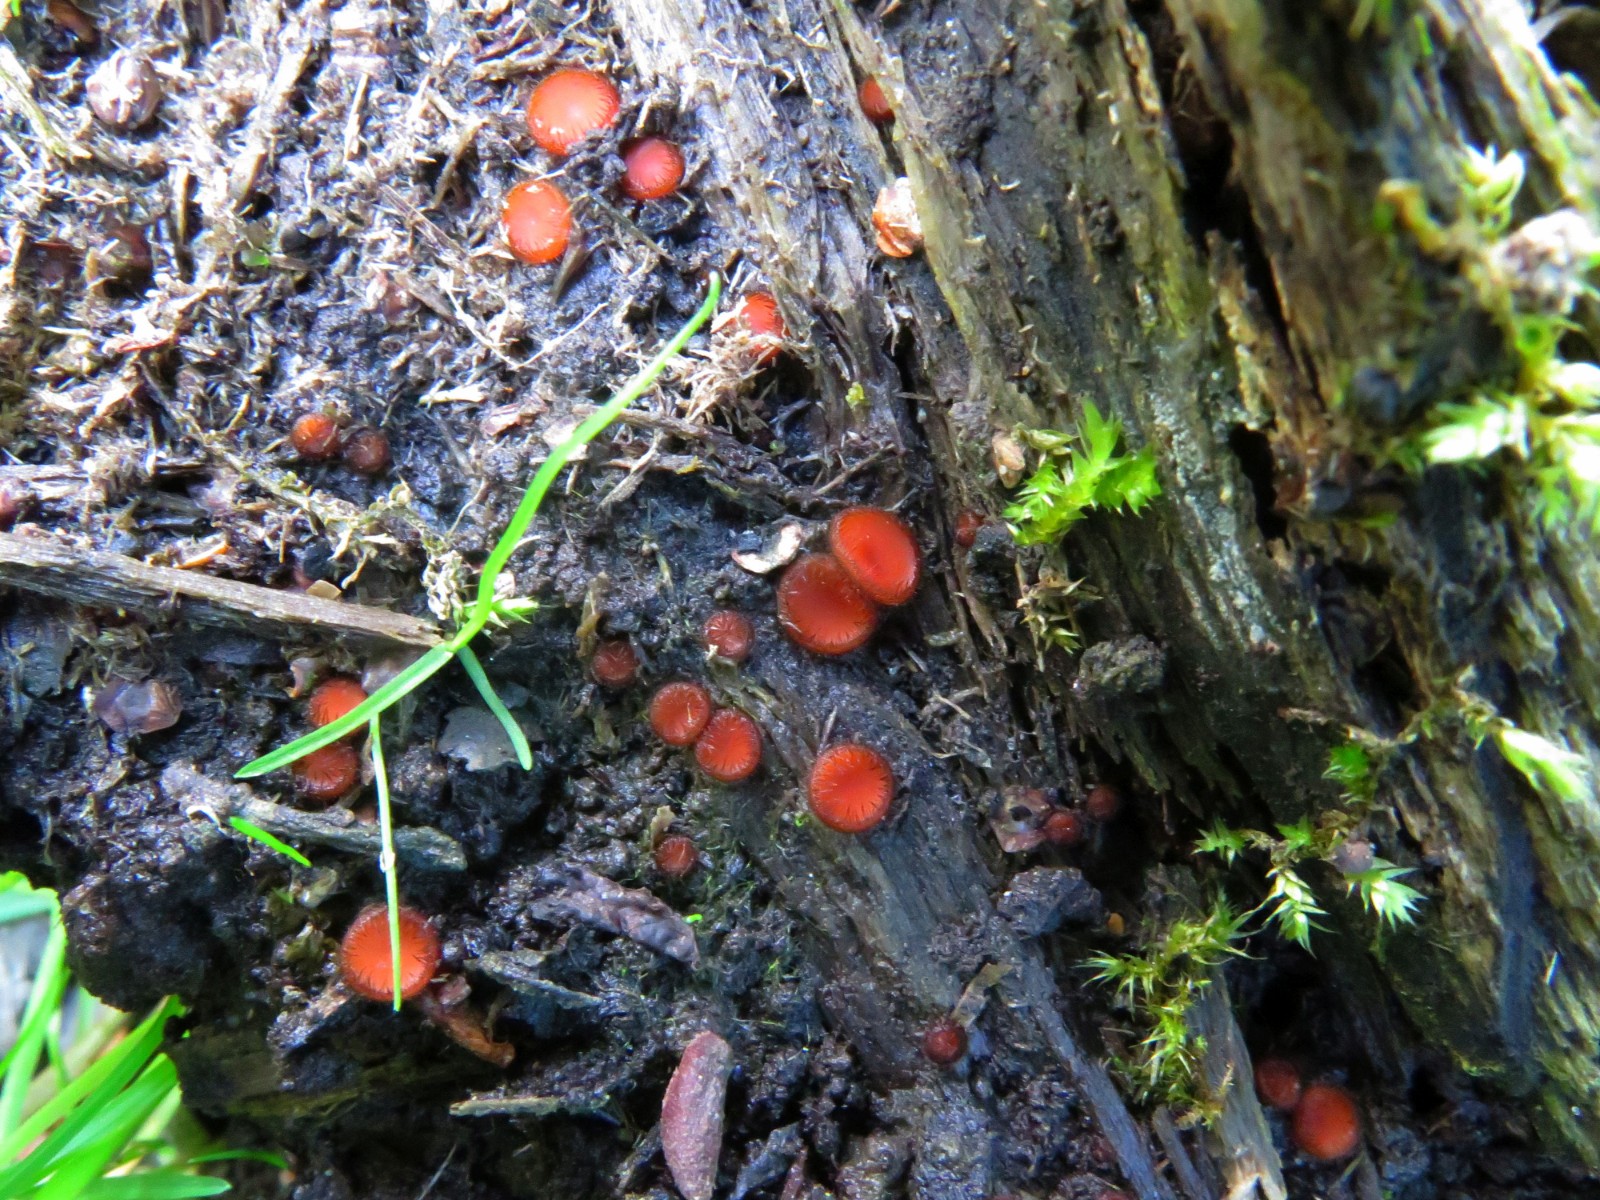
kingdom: Fungi
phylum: Ascomycota
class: Pezizomycetes
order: Pezizales
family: Pyronemataceae
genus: Scutellinia
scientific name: Scutellinia scutellata
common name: frynset skjoldbæger
